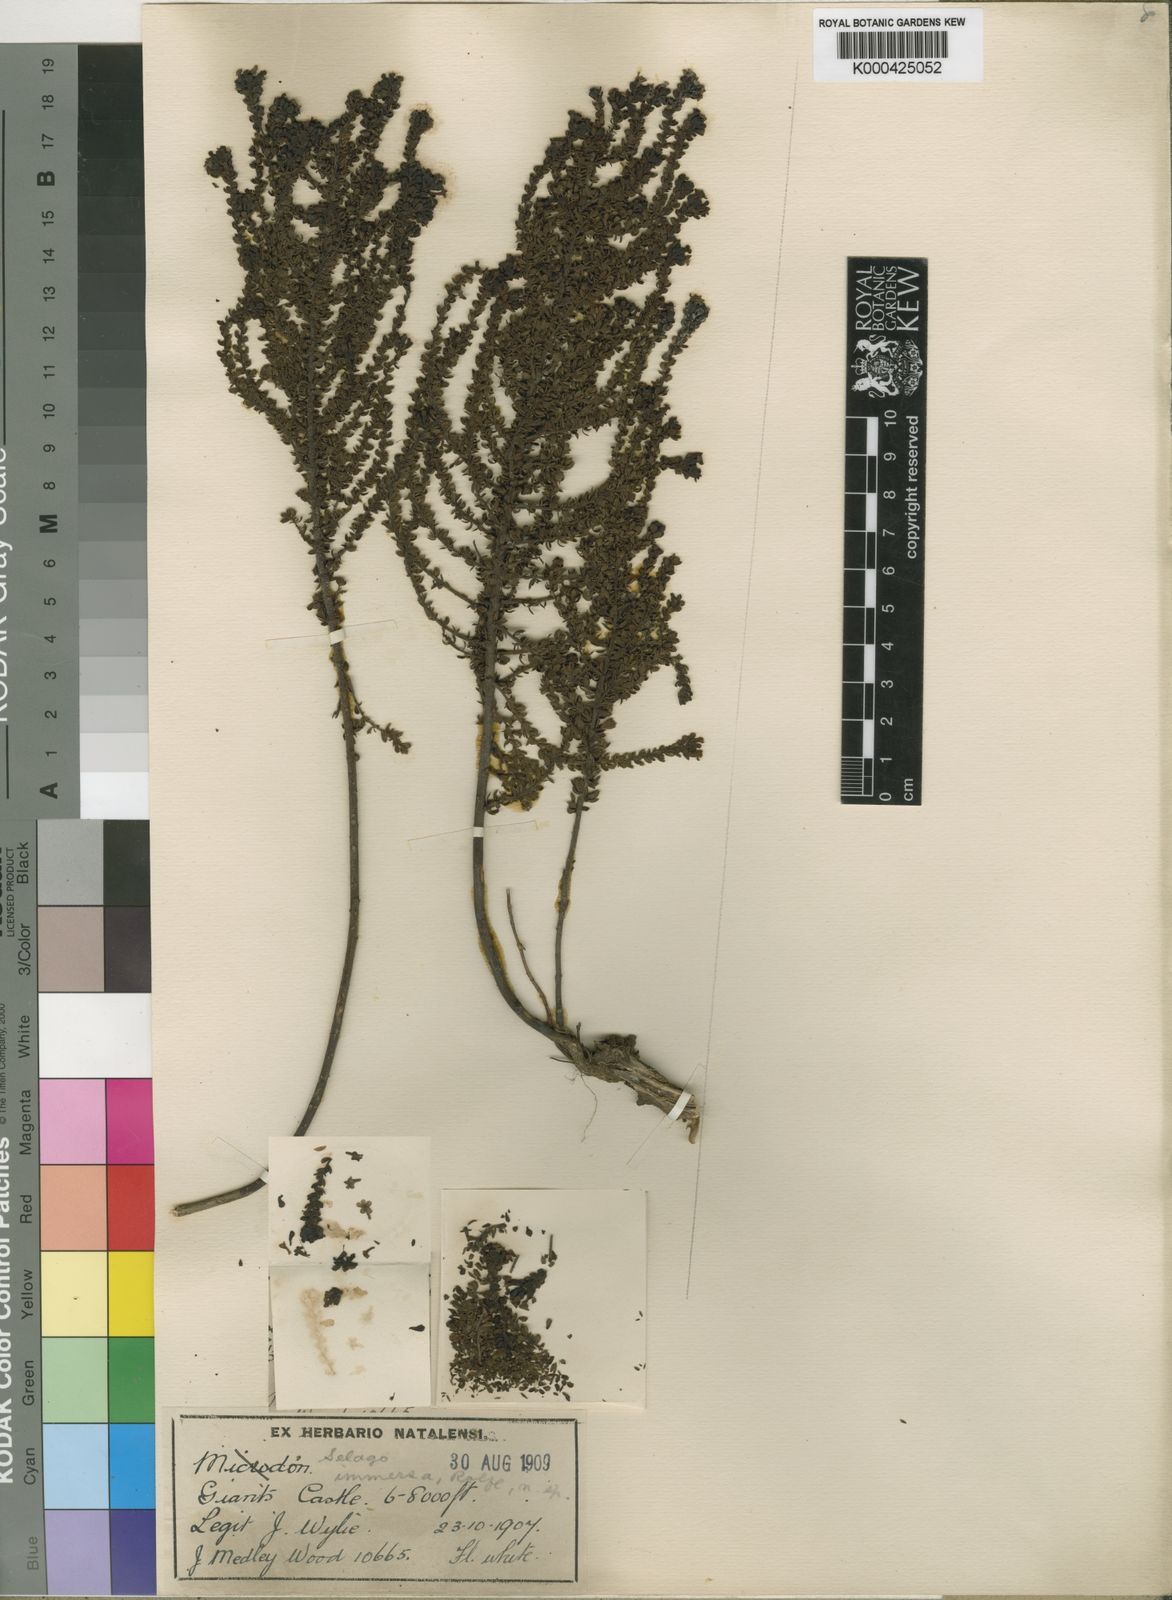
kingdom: Plantae
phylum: Tracheophyta
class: Magnoliopsida
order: Lamiales
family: Scrophulariaceae
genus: Selago
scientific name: Selago immersa
